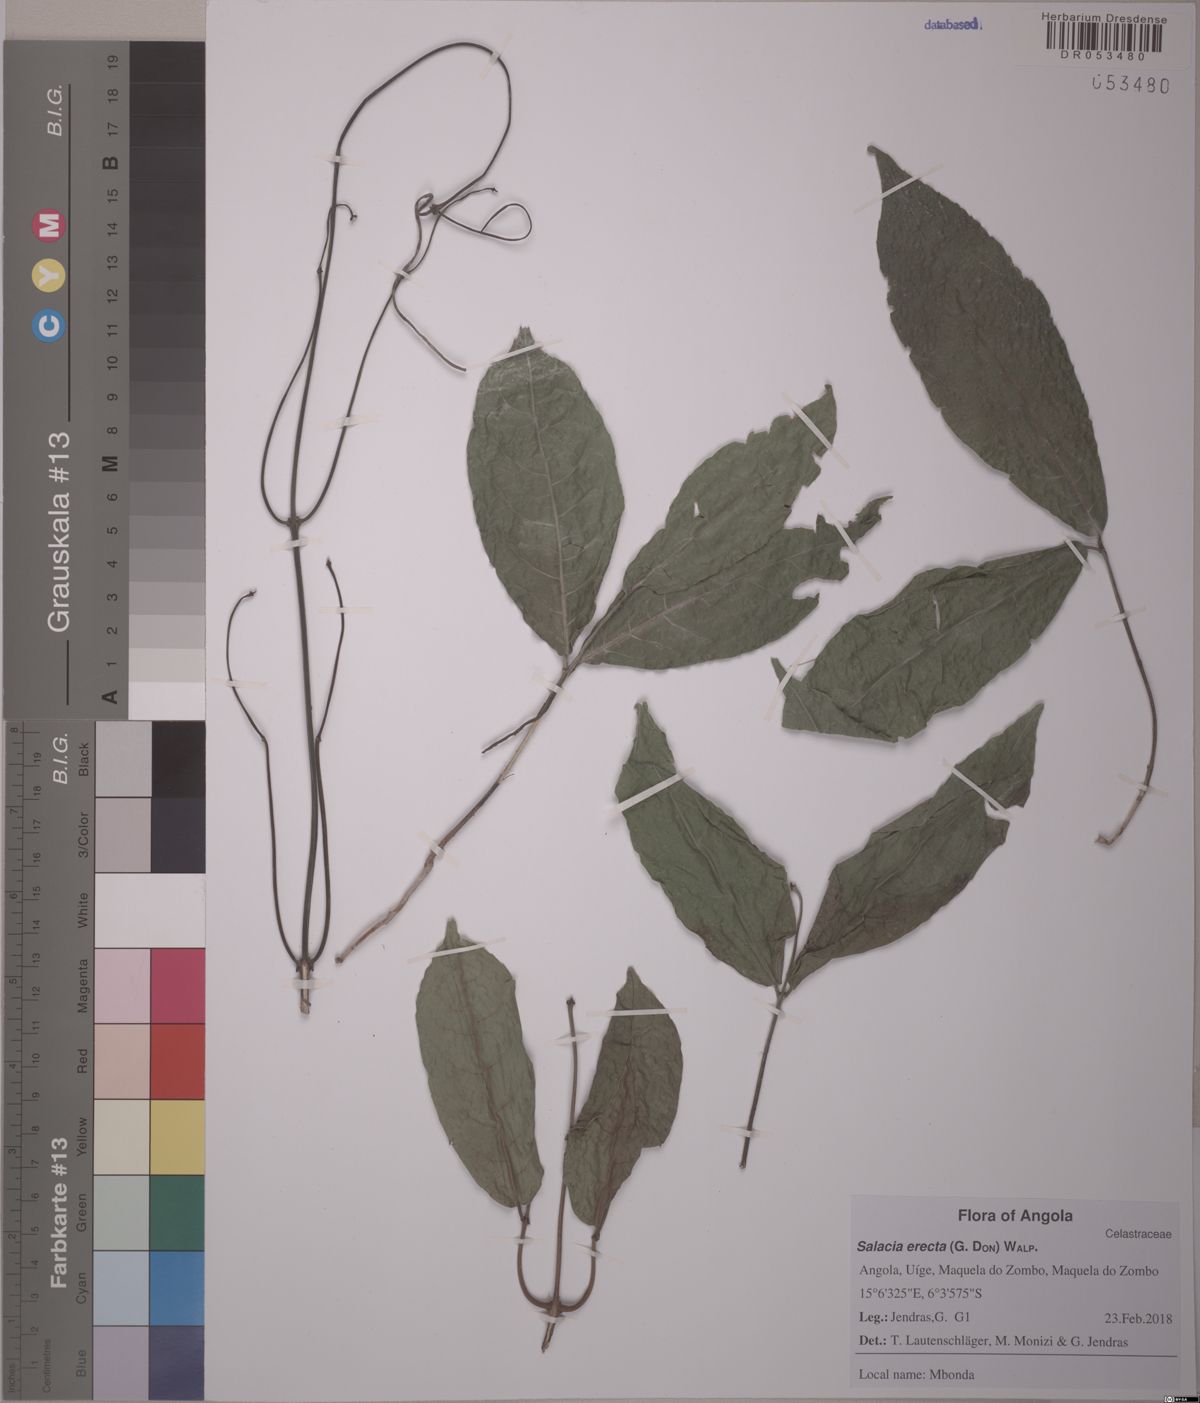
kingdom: Plantae
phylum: Tracheophyta
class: Magnoliopsida
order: Celastrales
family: Celastraceae
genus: Salacia
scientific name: Salacia erecta
